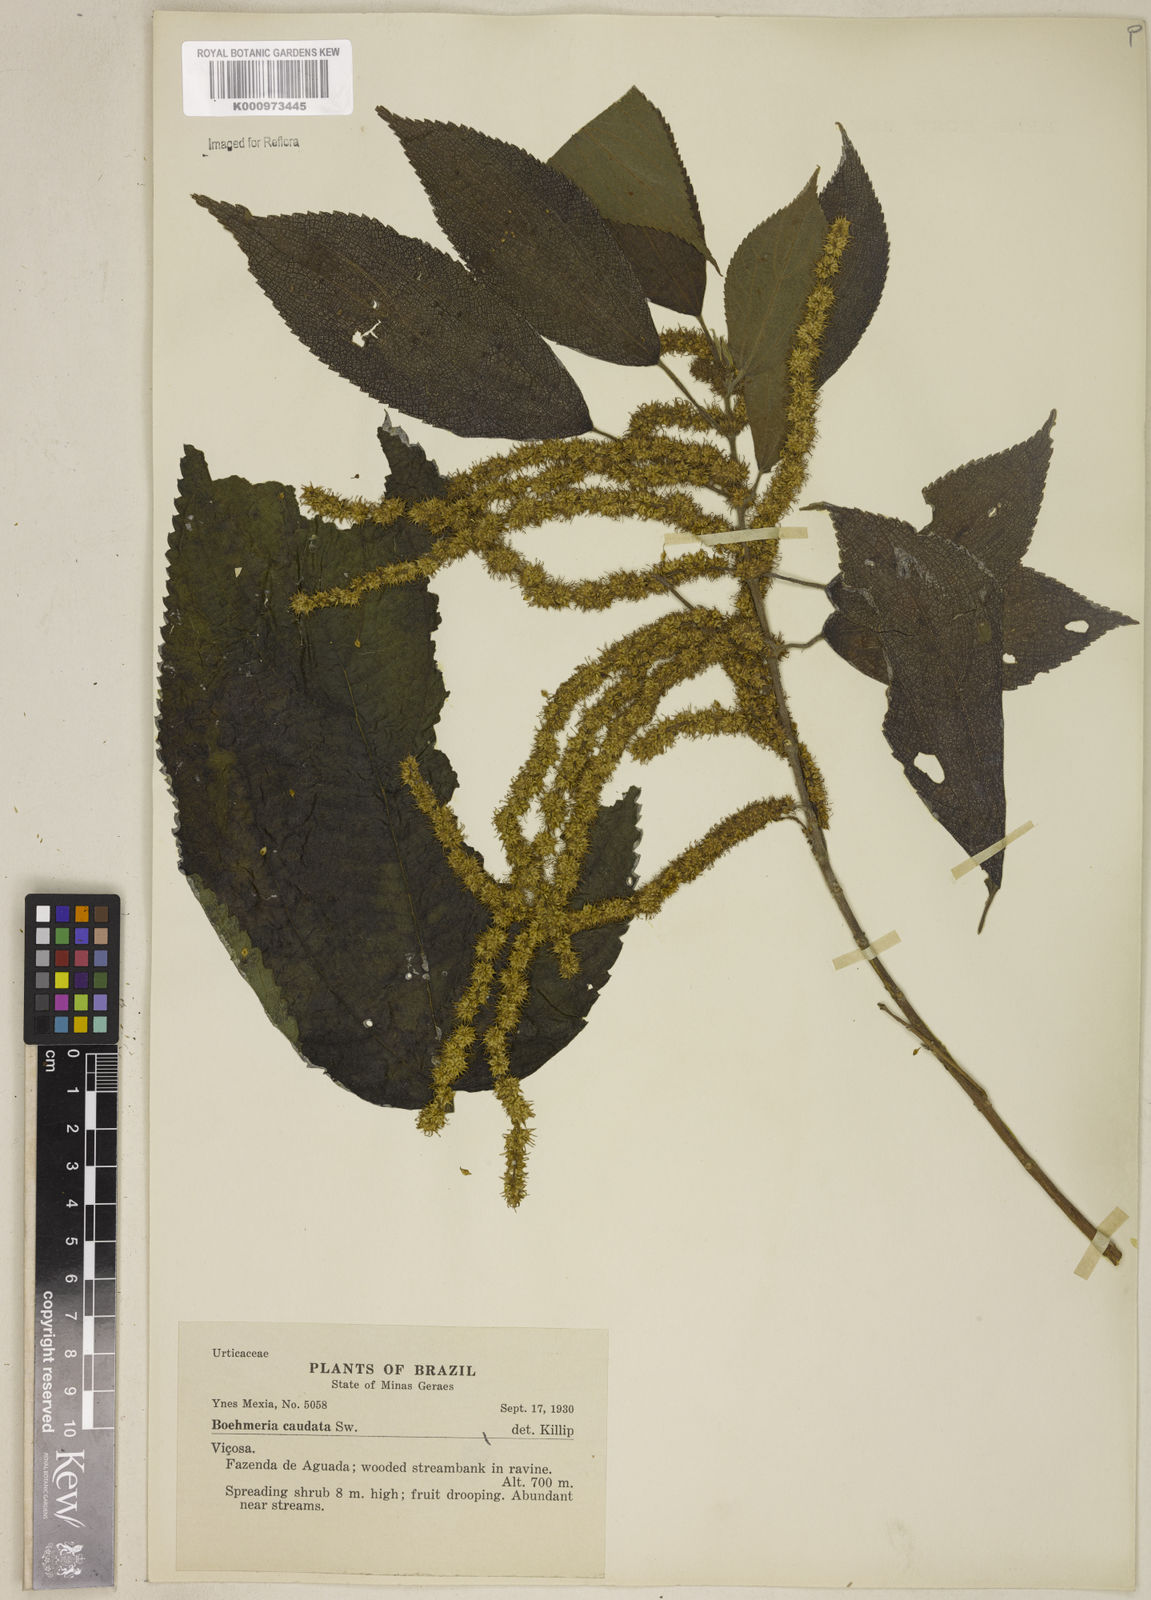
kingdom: Plantae
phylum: Tracheophyta
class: Magnoliopsida
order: Rosales
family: Urticaceae
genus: Boehmeria
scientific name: Boehmeria caudata
